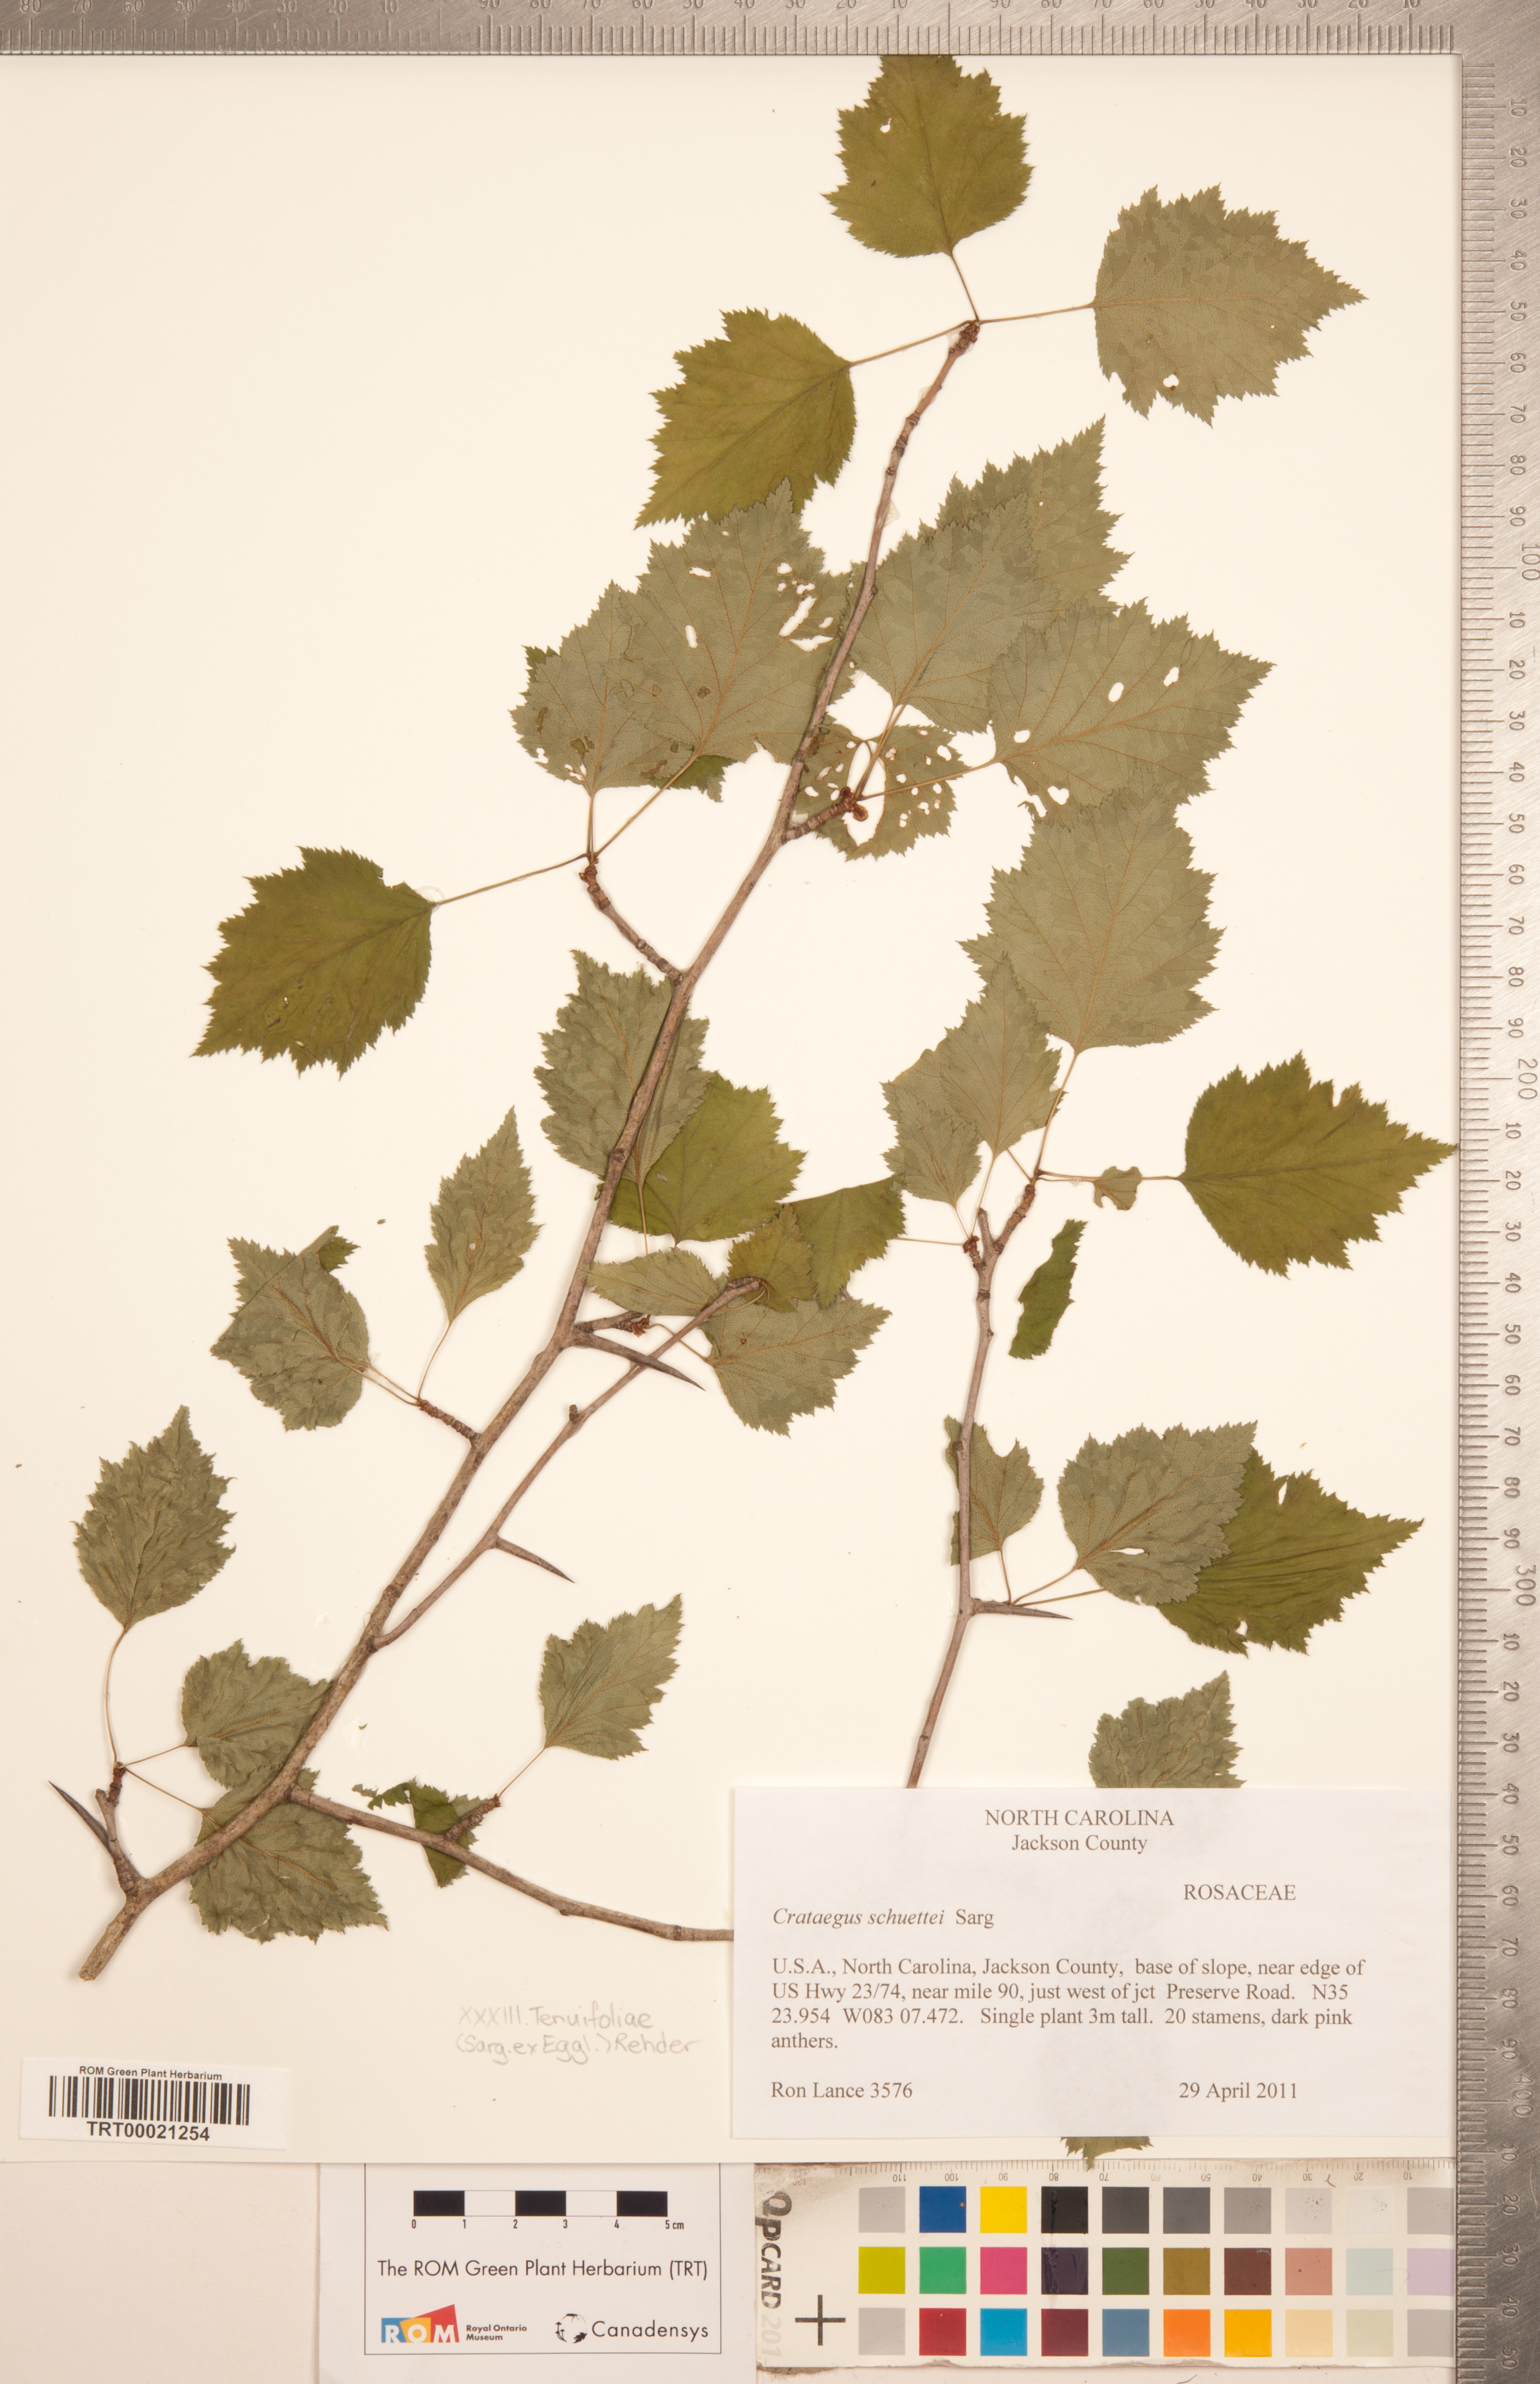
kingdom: Plantae
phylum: Tracheophyta
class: Magnoliopsida
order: Rosales
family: Rosaceae
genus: Crataegus
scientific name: Crataegus schuettei
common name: Schuette's hawthorn
